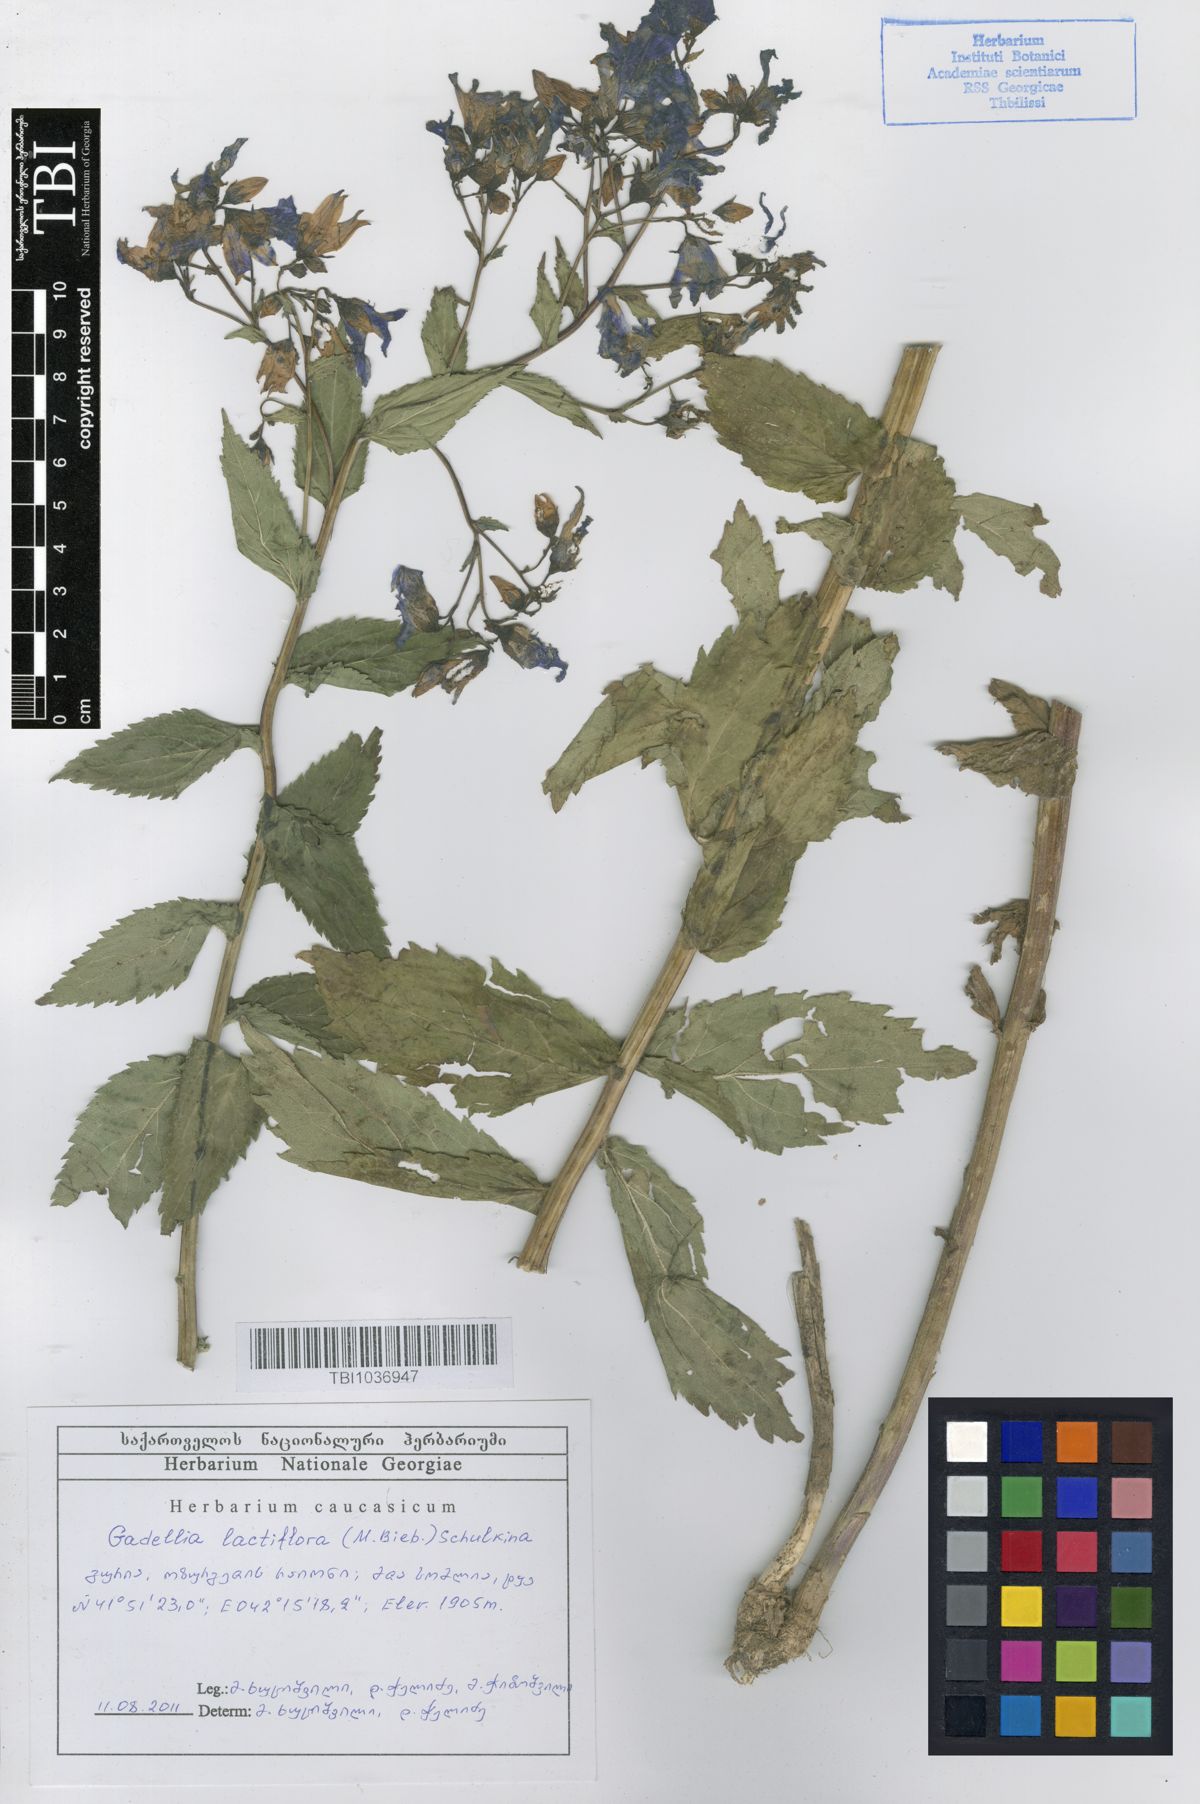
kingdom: Plantae
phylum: Tracheophyta
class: Magnoliopsida
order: Asterales
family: Campanulaceae
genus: Campanula
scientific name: Campanula lactiflora
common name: Milky bellflower
